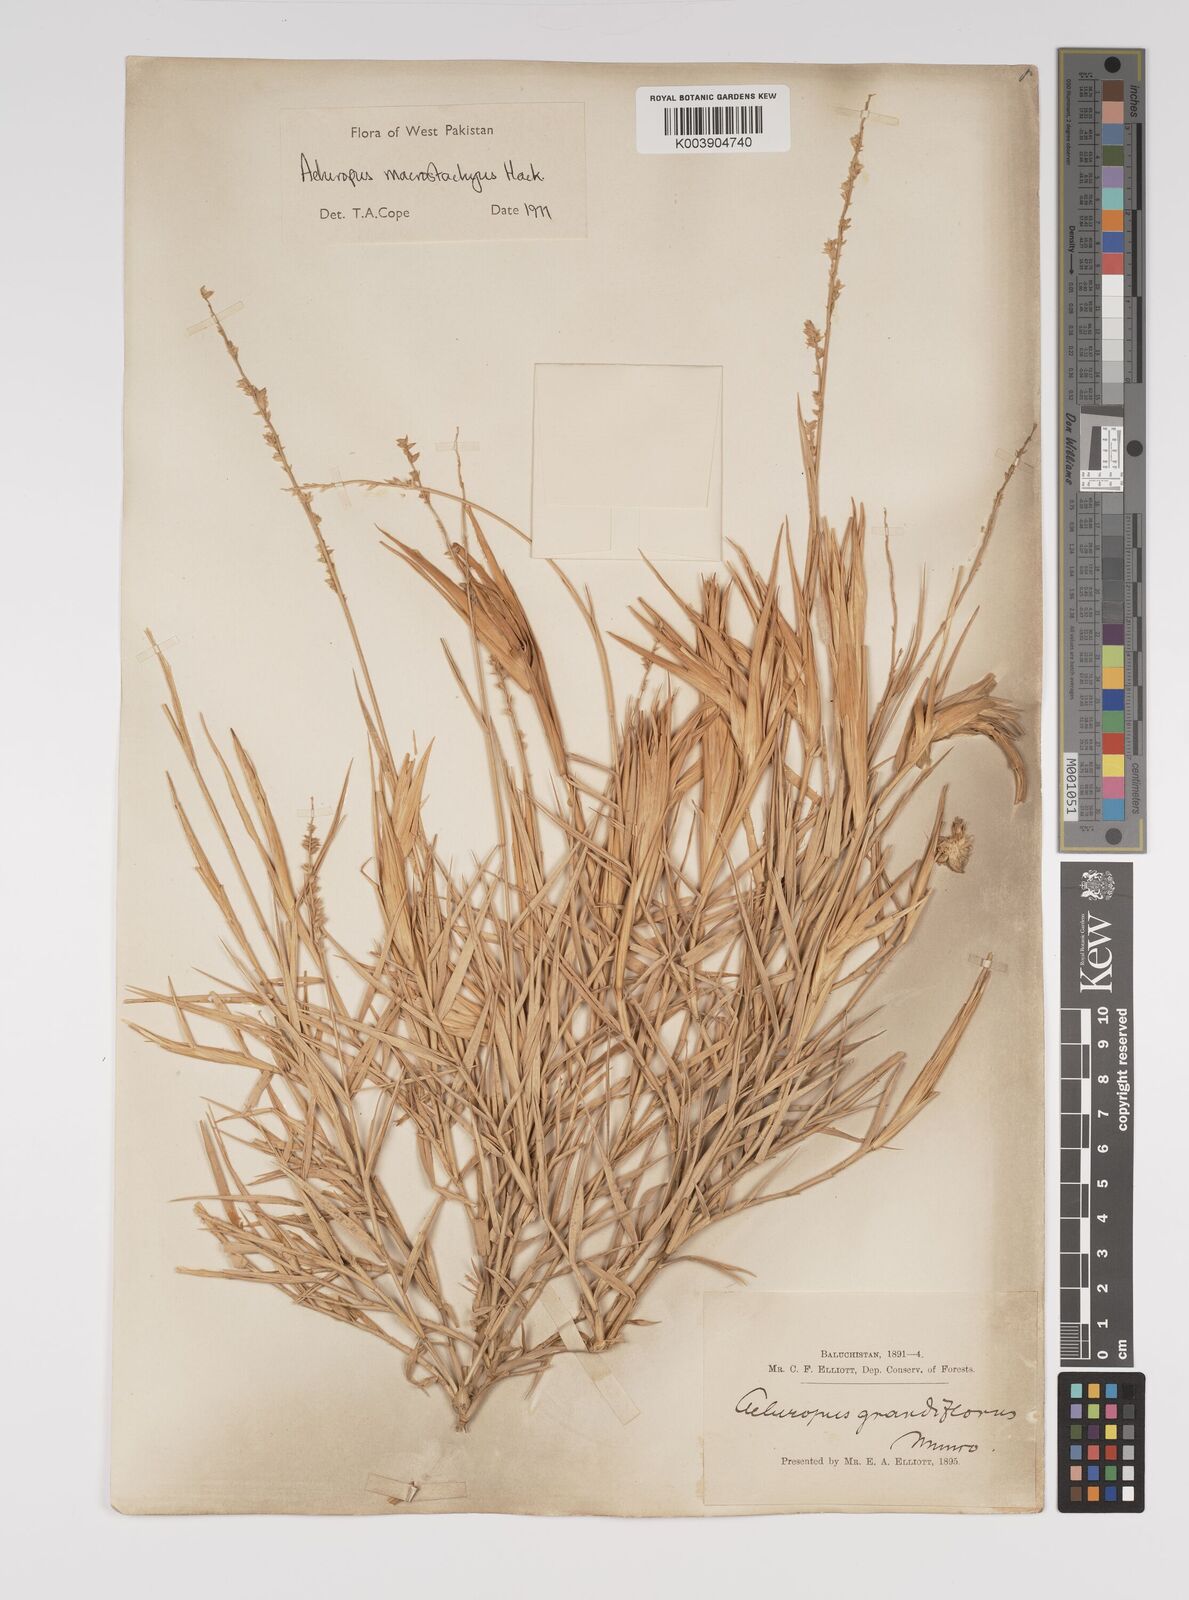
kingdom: Plantae
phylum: Tracheophyta
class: Liliopsida
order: Poales
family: Poaceae
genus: Aeluropus
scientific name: Aeluropus macrostachyus
